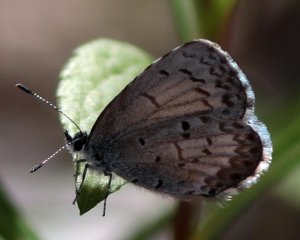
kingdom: Animalia
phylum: Arthropoda
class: Insecta
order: Lepidoptera
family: Lycaenidae
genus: Celastrina
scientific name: Celastrina lucia
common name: Northern Spring Azure
